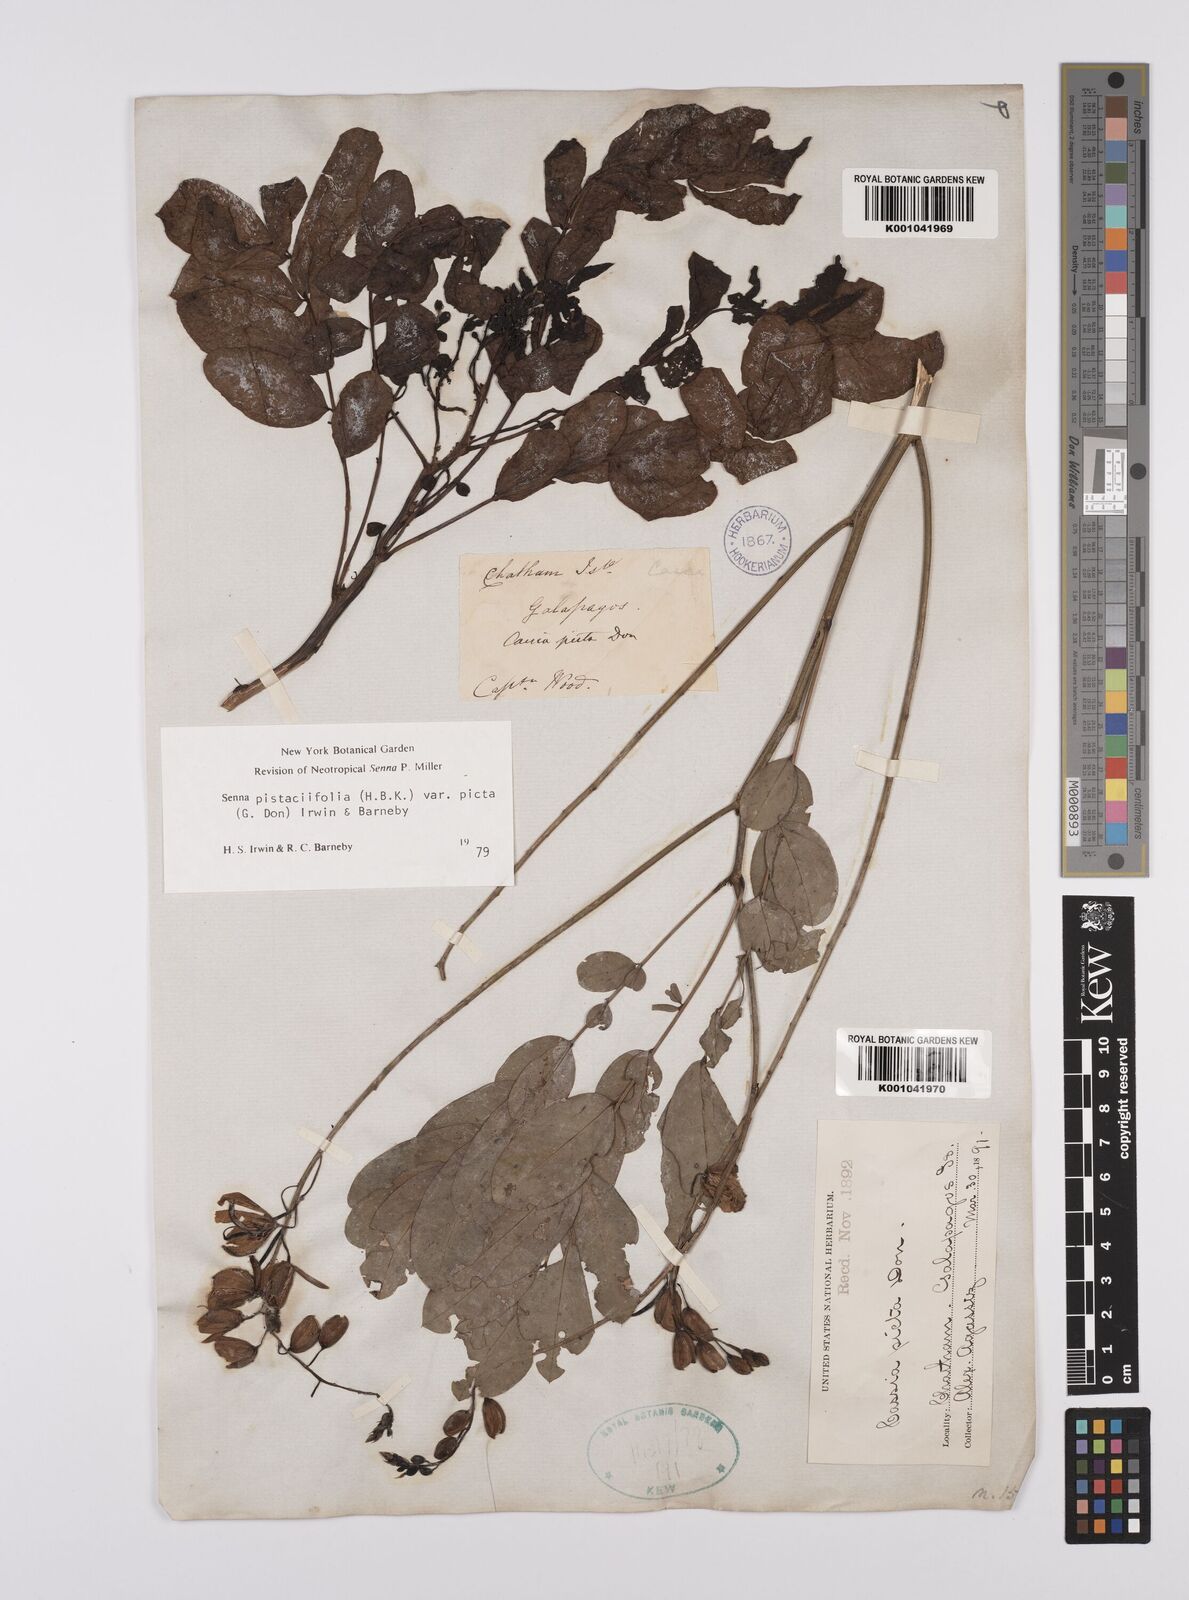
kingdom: Plantae
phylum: Tracheophyta
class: Magnoliopsida
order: Fabales
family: Fabaceae
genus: Senna
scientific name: Senna pistaciifolia
